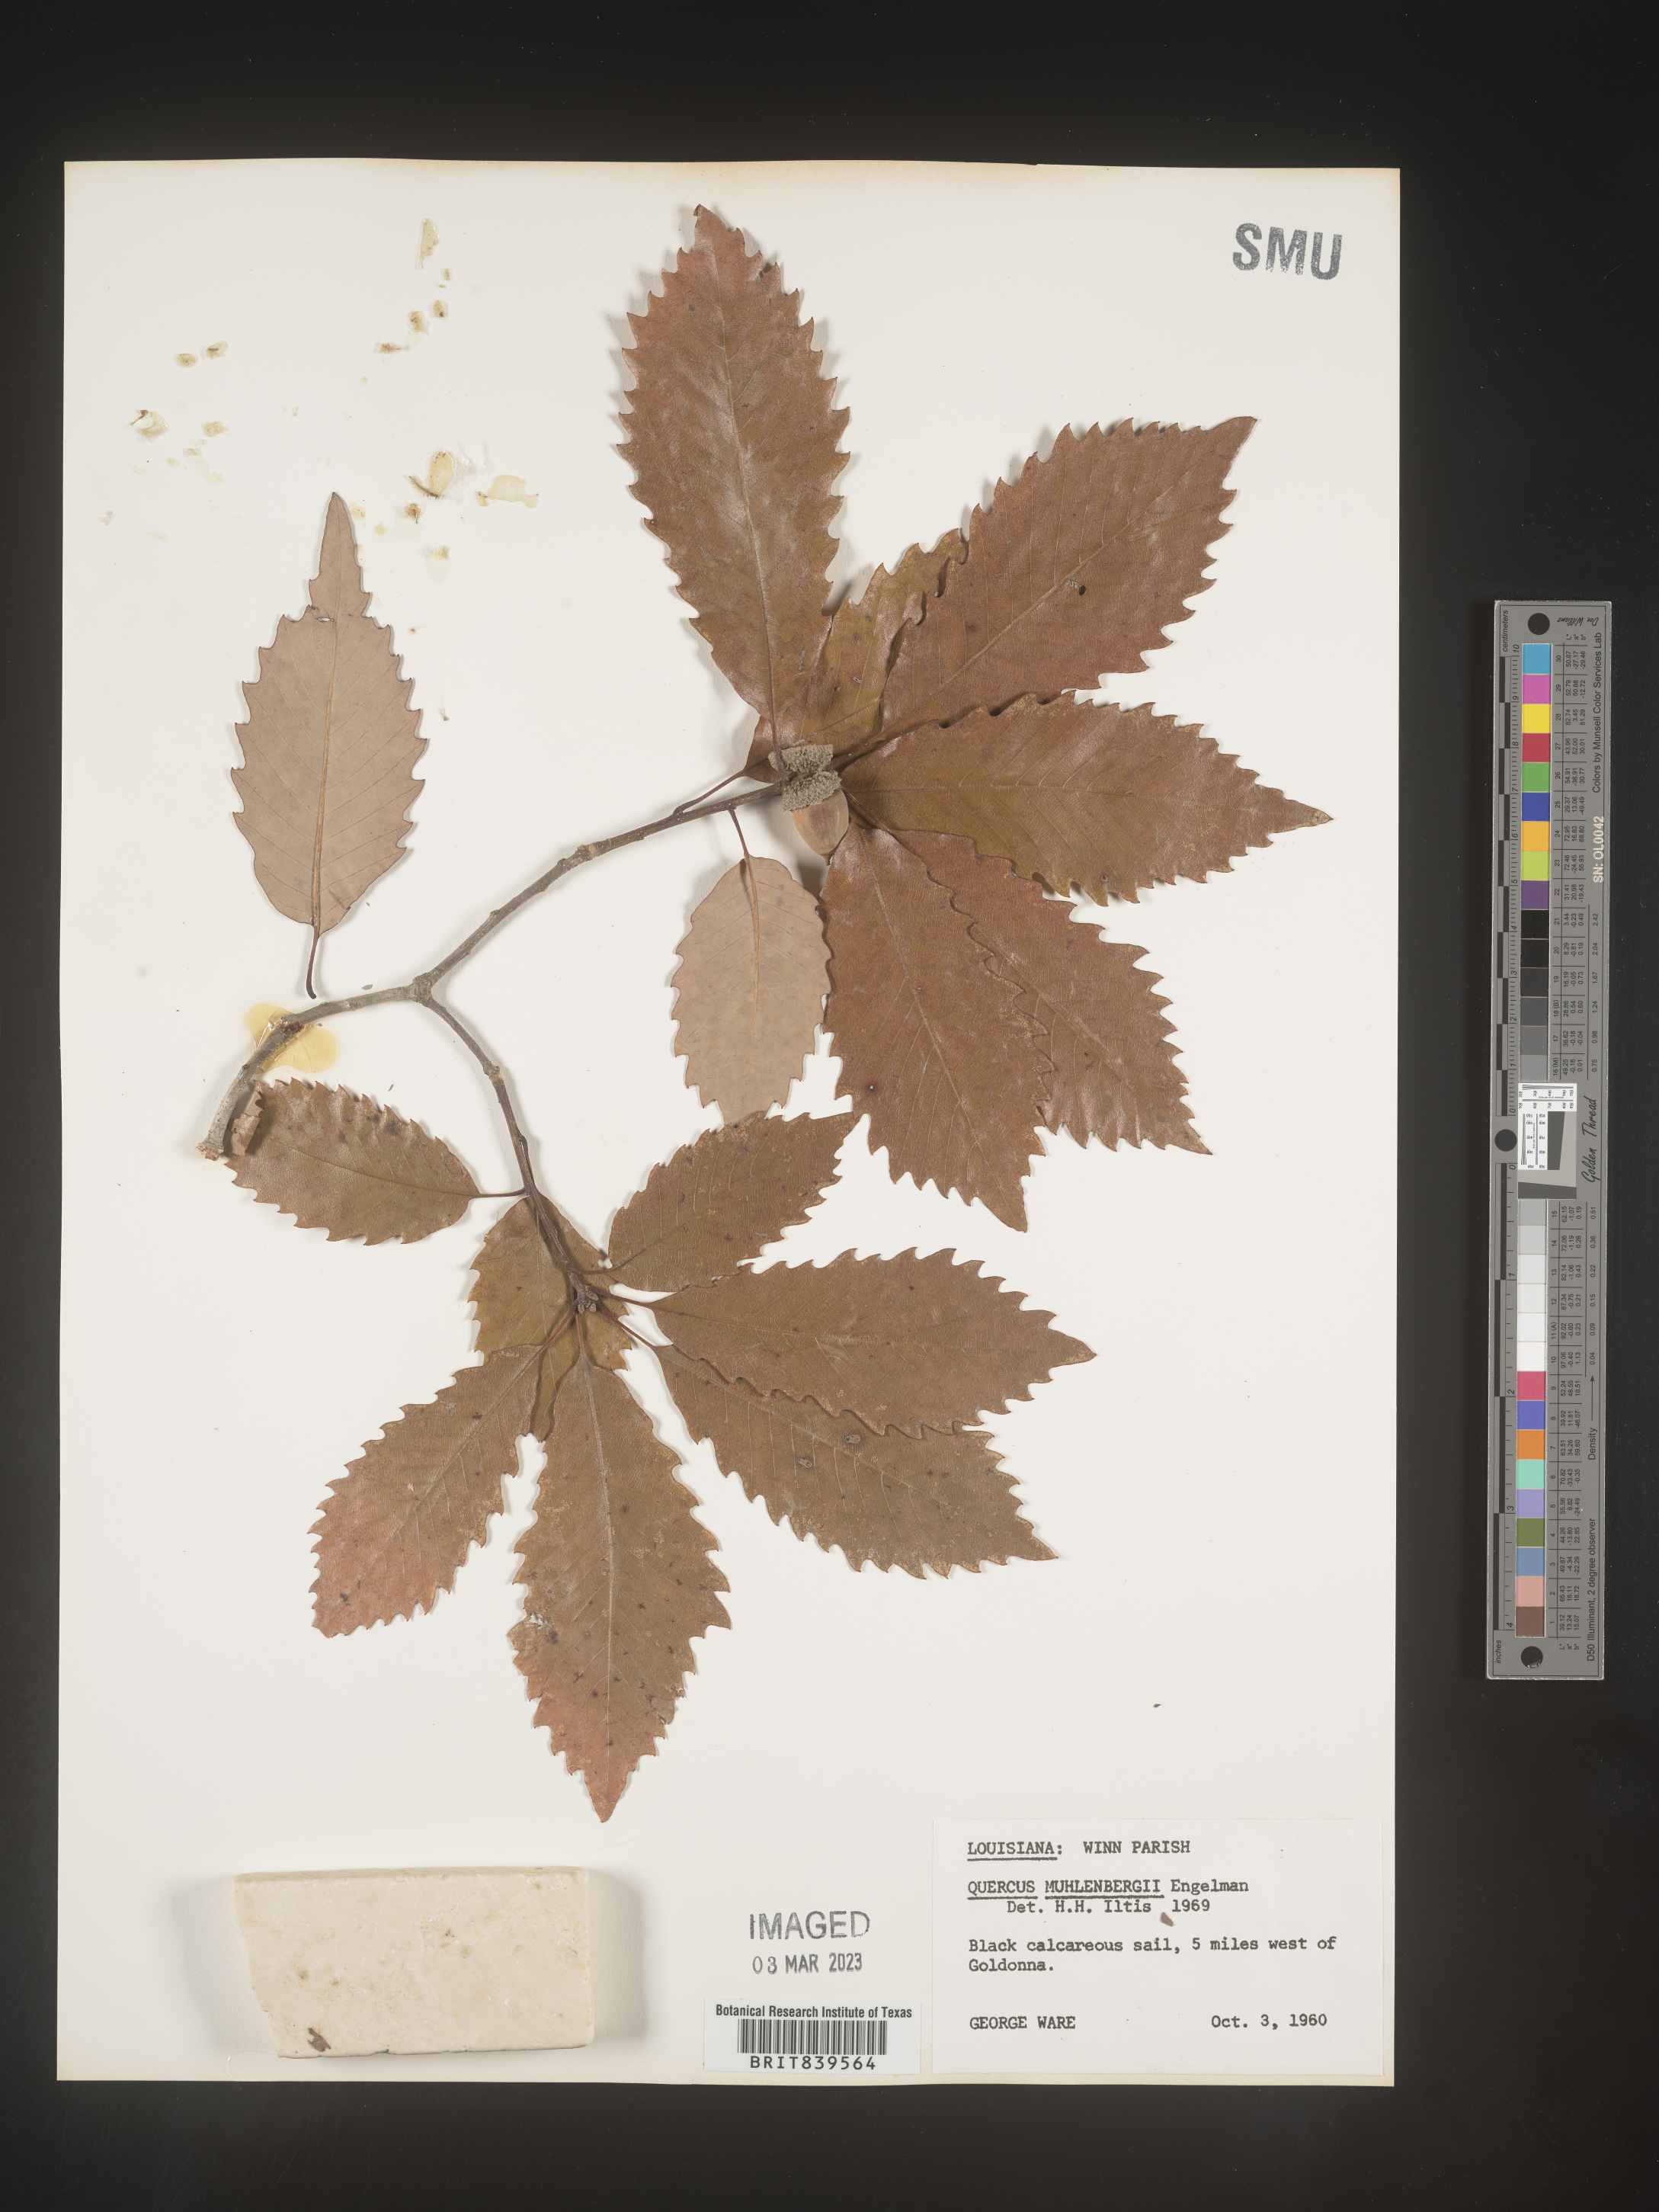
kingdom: Plantae
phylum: Tracheophyta
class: Magnoliopsida
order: Fagales
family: Fagaceae
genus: Quercus
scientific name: Quercus muehlenbergii
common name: Chinkapin oak
